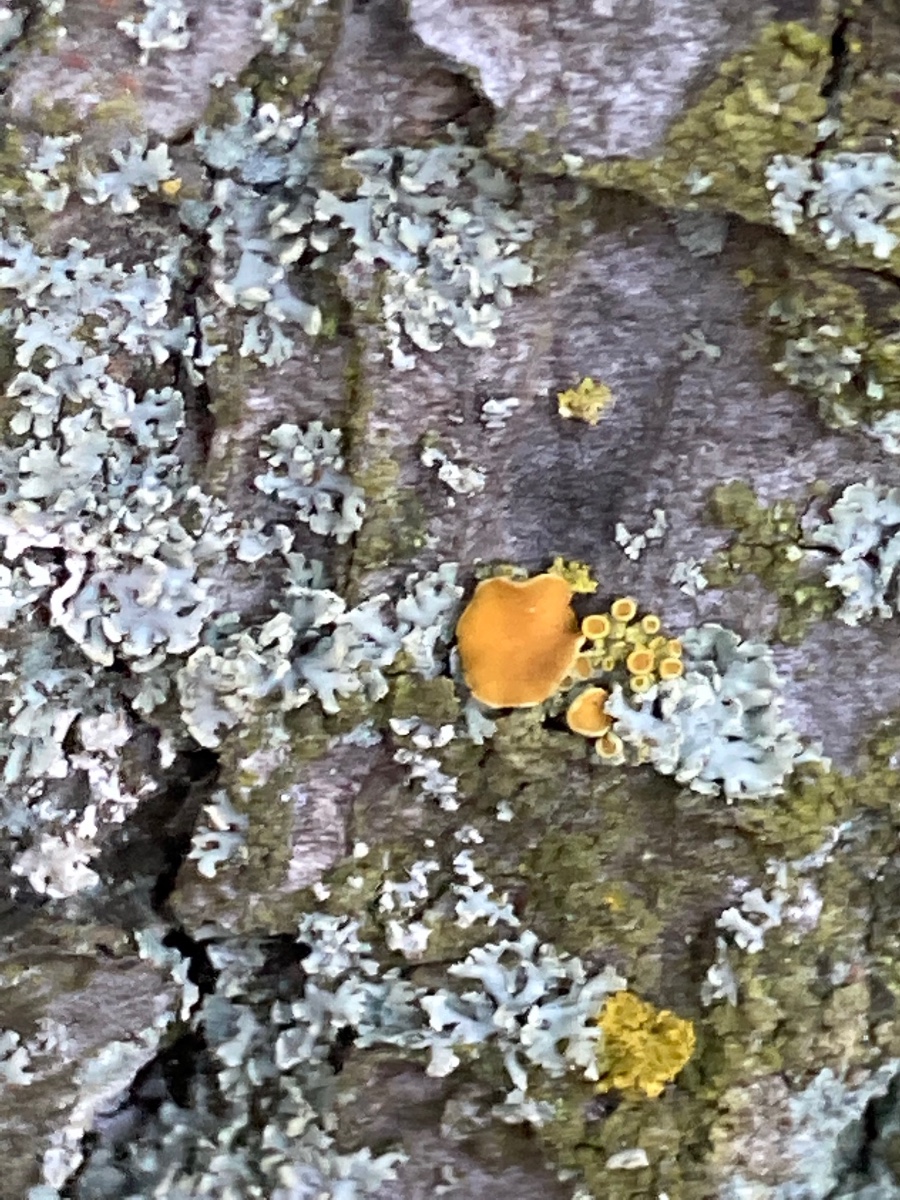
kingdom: Fungi
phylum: Ascomycota
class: Lecanoromycetes
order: Teloschistales
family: Teloschistaceae
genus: Polycauliona
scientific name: Polycauliona polycarpa
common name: mangefrugtet orangelav
